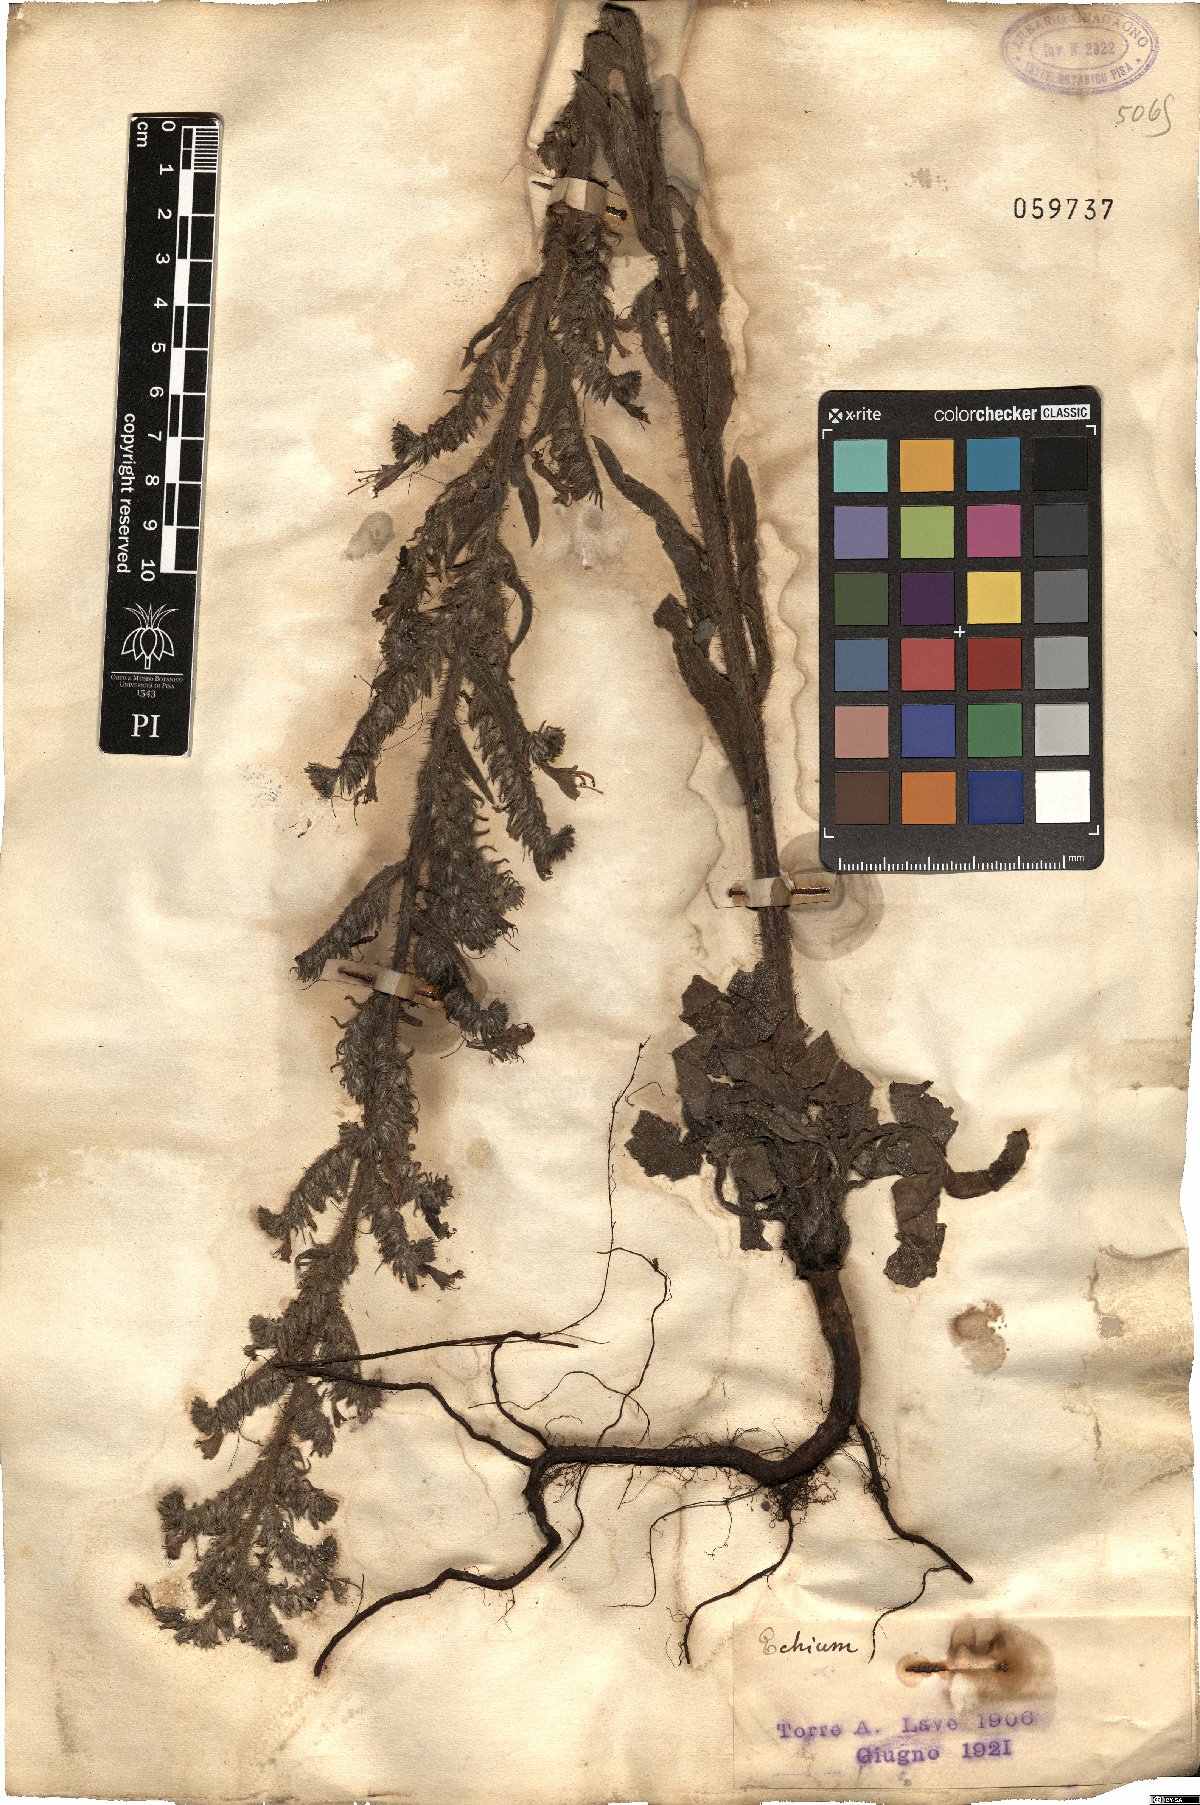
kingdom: Plantae
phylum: Tracheophyta
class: Magnoliopsida
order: Boraginales
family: Boraginaceae
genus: Echium
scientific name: Echium
